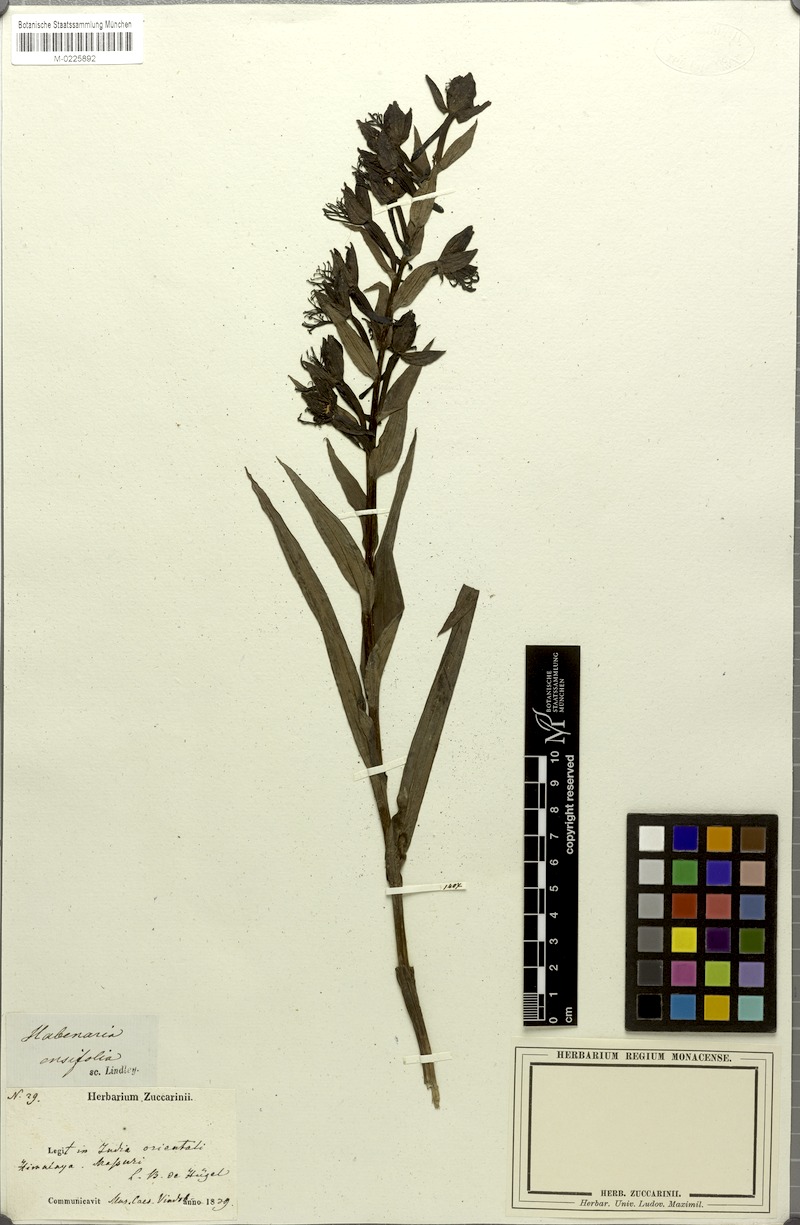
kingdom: Plantae
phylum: Tracheophyta
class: Liliopsida
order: Asparagales
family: Orchidaceae
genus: Habenaria
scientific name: Habenaria pectinata
